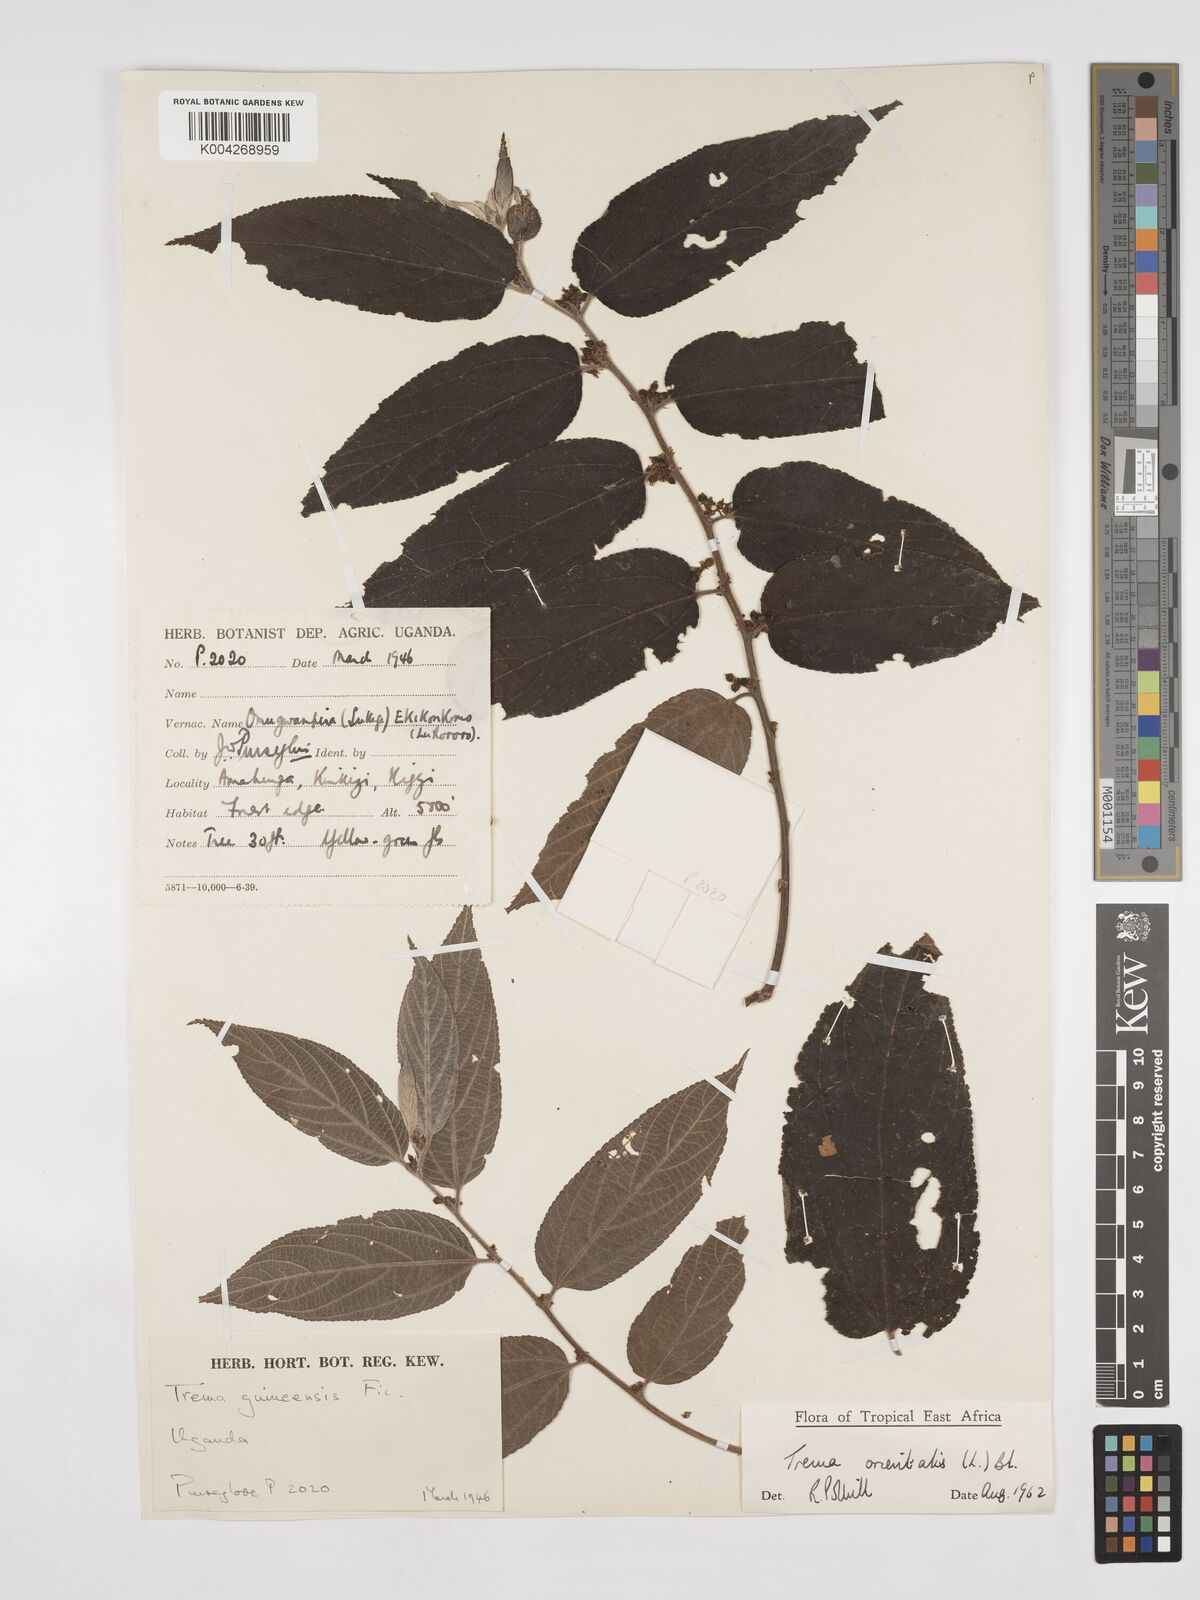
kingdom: Plantae
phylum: Tracheophyta
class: Magnoliopsida
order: Rosales
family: Cannabaceae
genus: Trema
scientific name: Trema orientale
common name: Indian charcoal tree
